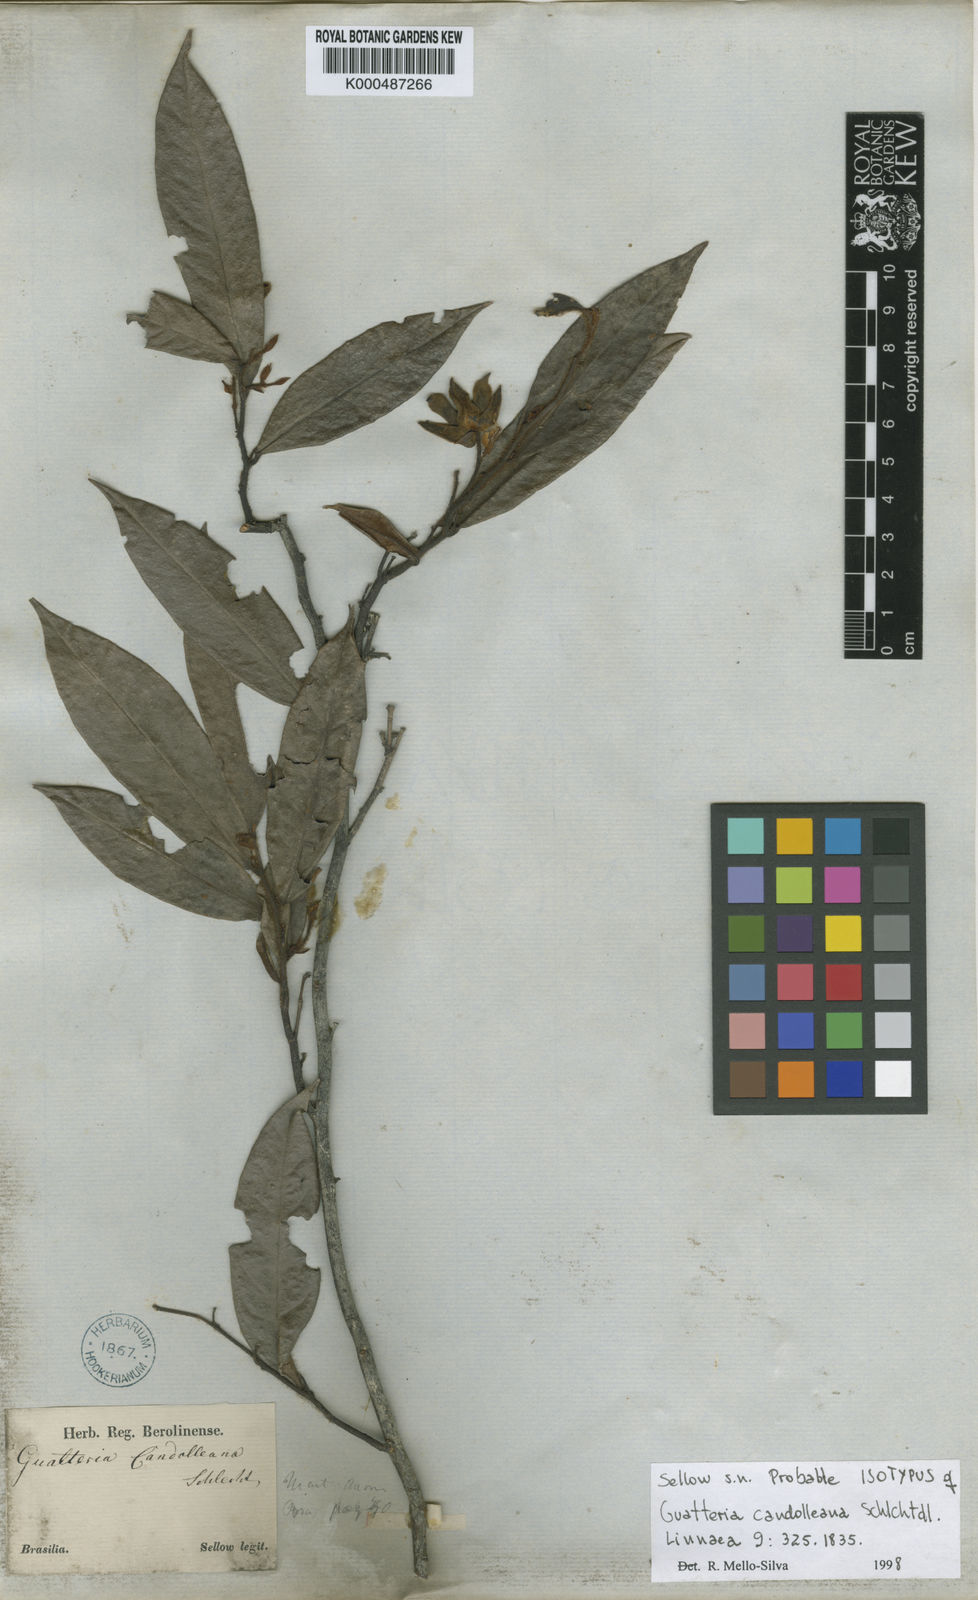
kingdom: Plantae
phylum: Tracheophyta
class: Magnoliopsida
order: Magnoliales
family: Annonaceae
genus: Guatteria
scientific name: Guatteria candolleana
